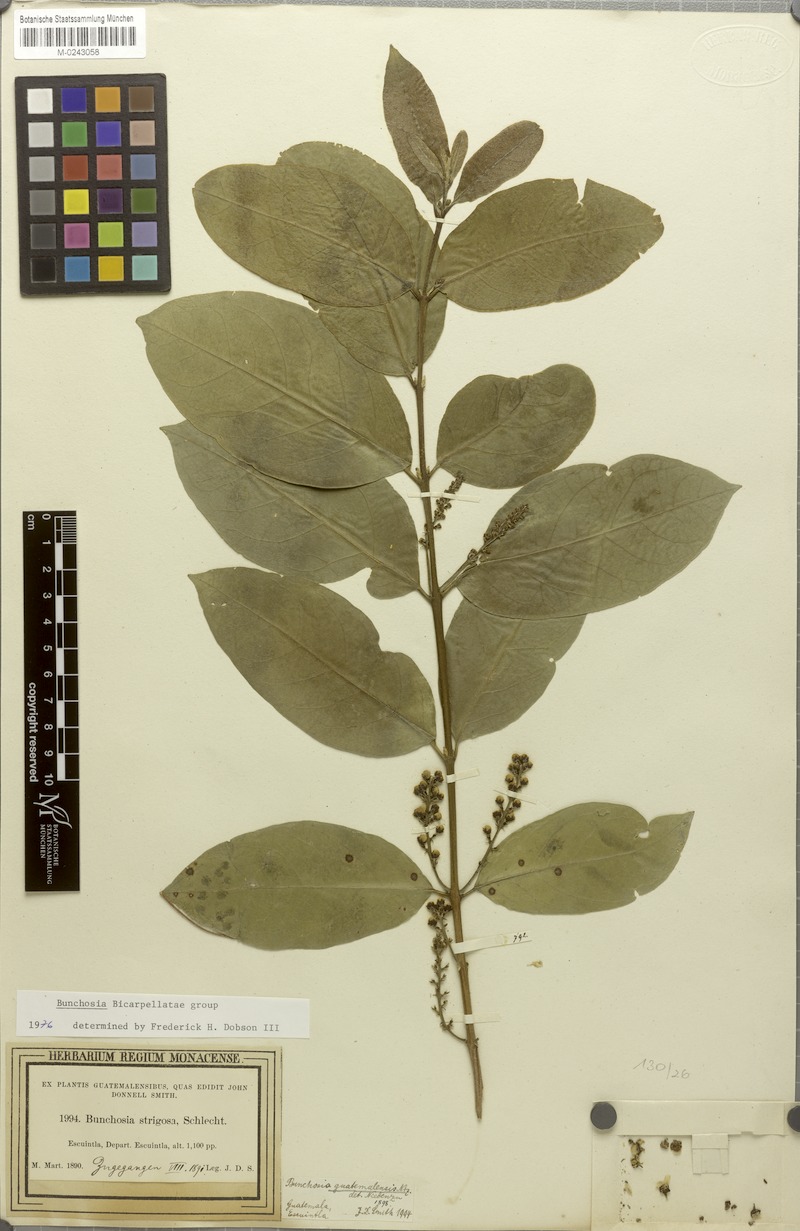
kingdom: Plantae
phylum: Tracheophyta
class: Magnoliopsida
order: Malpighiales
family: Malpighiaceae
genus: Bunchosia
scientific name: Bunchosia guatemalensis
